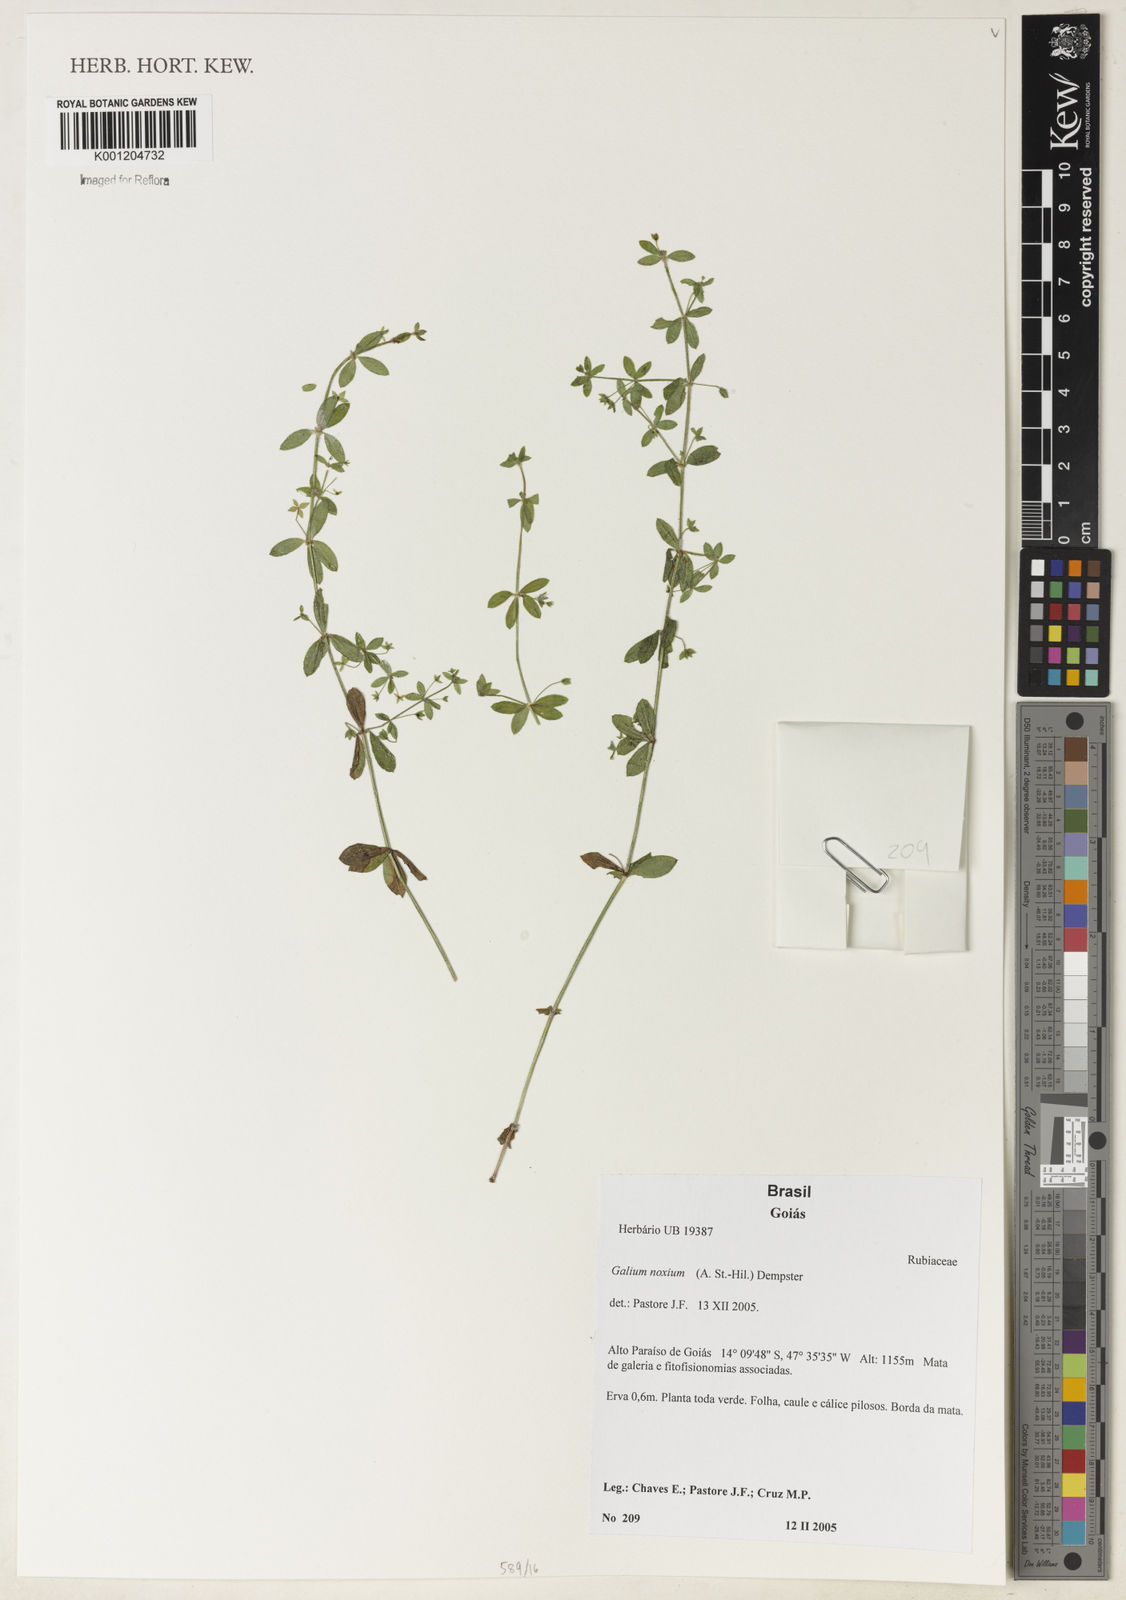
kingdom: Plantae
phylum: Tracheophyta
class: Magnoliopsida
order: Gentianales
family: Rubiaceae
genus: Galium
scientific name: Galium noxium
